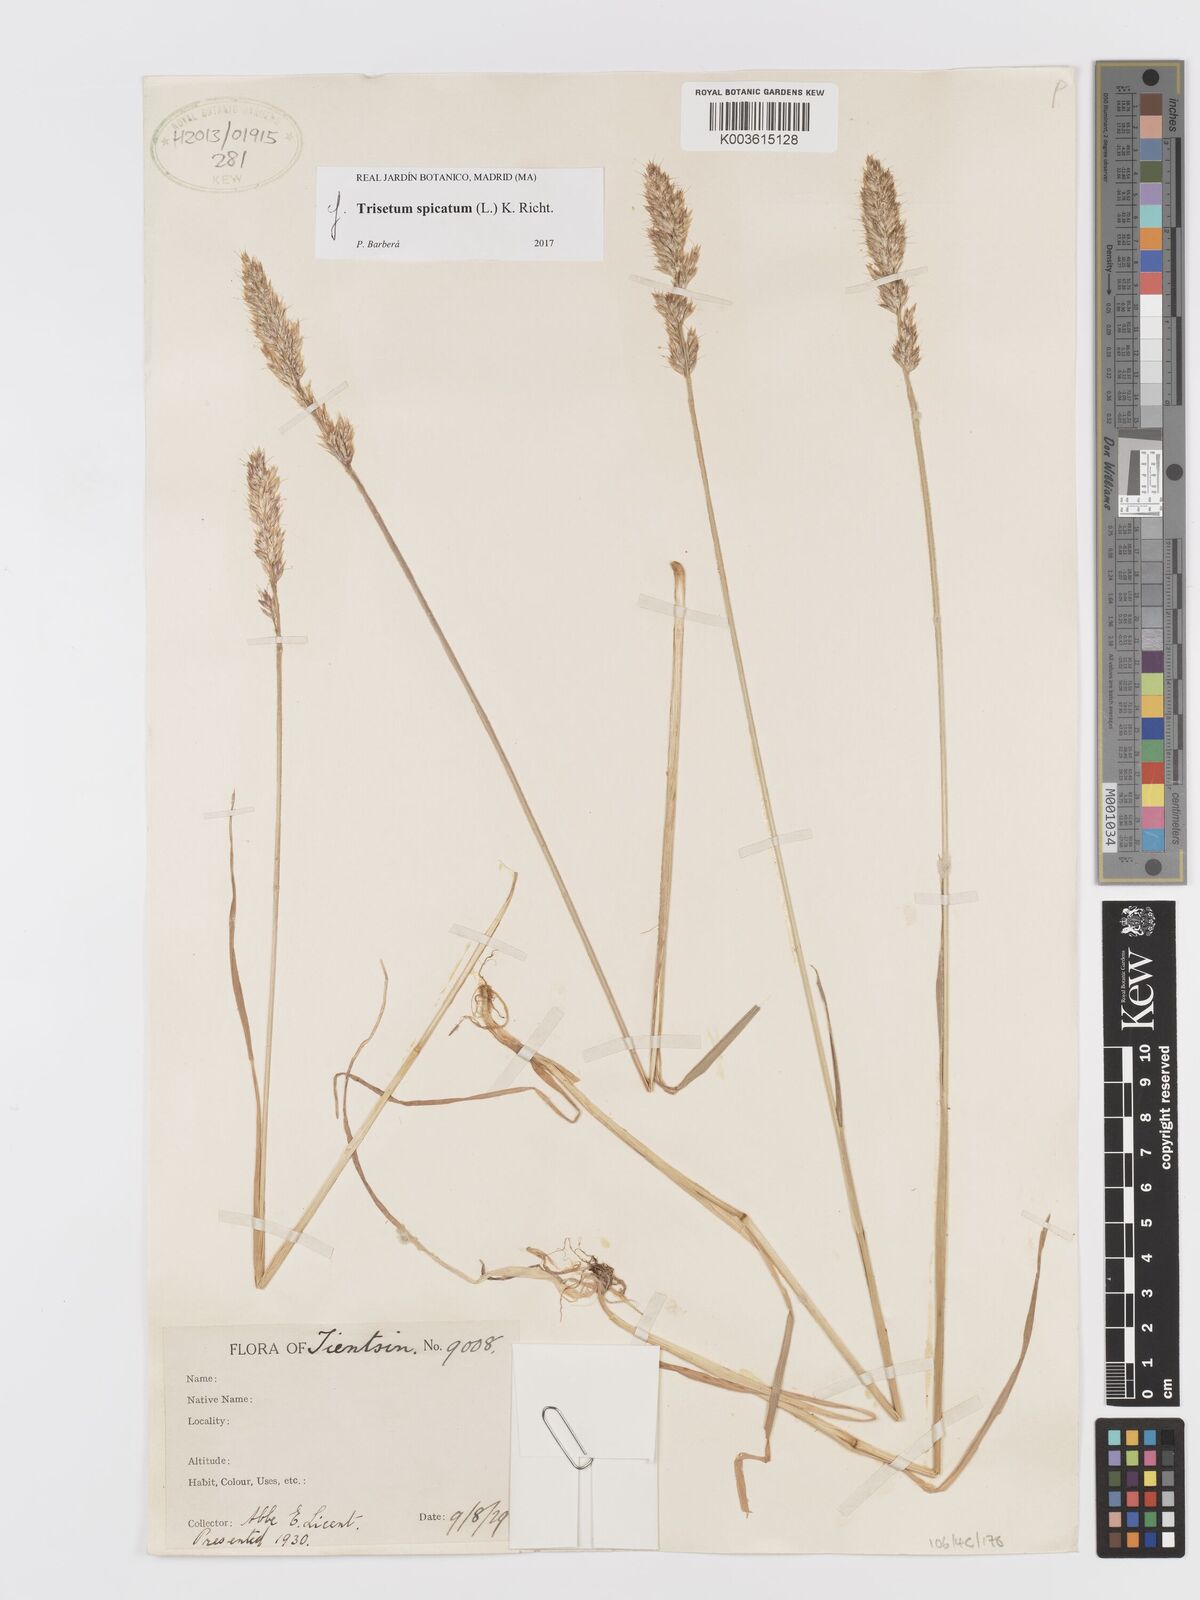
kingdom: Plantae
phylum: Tracheophyta
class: Liliopsida
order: Poales
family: Poaceae
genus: Koeleria
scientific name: Koeleria spicata
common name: Mountain trisetum
